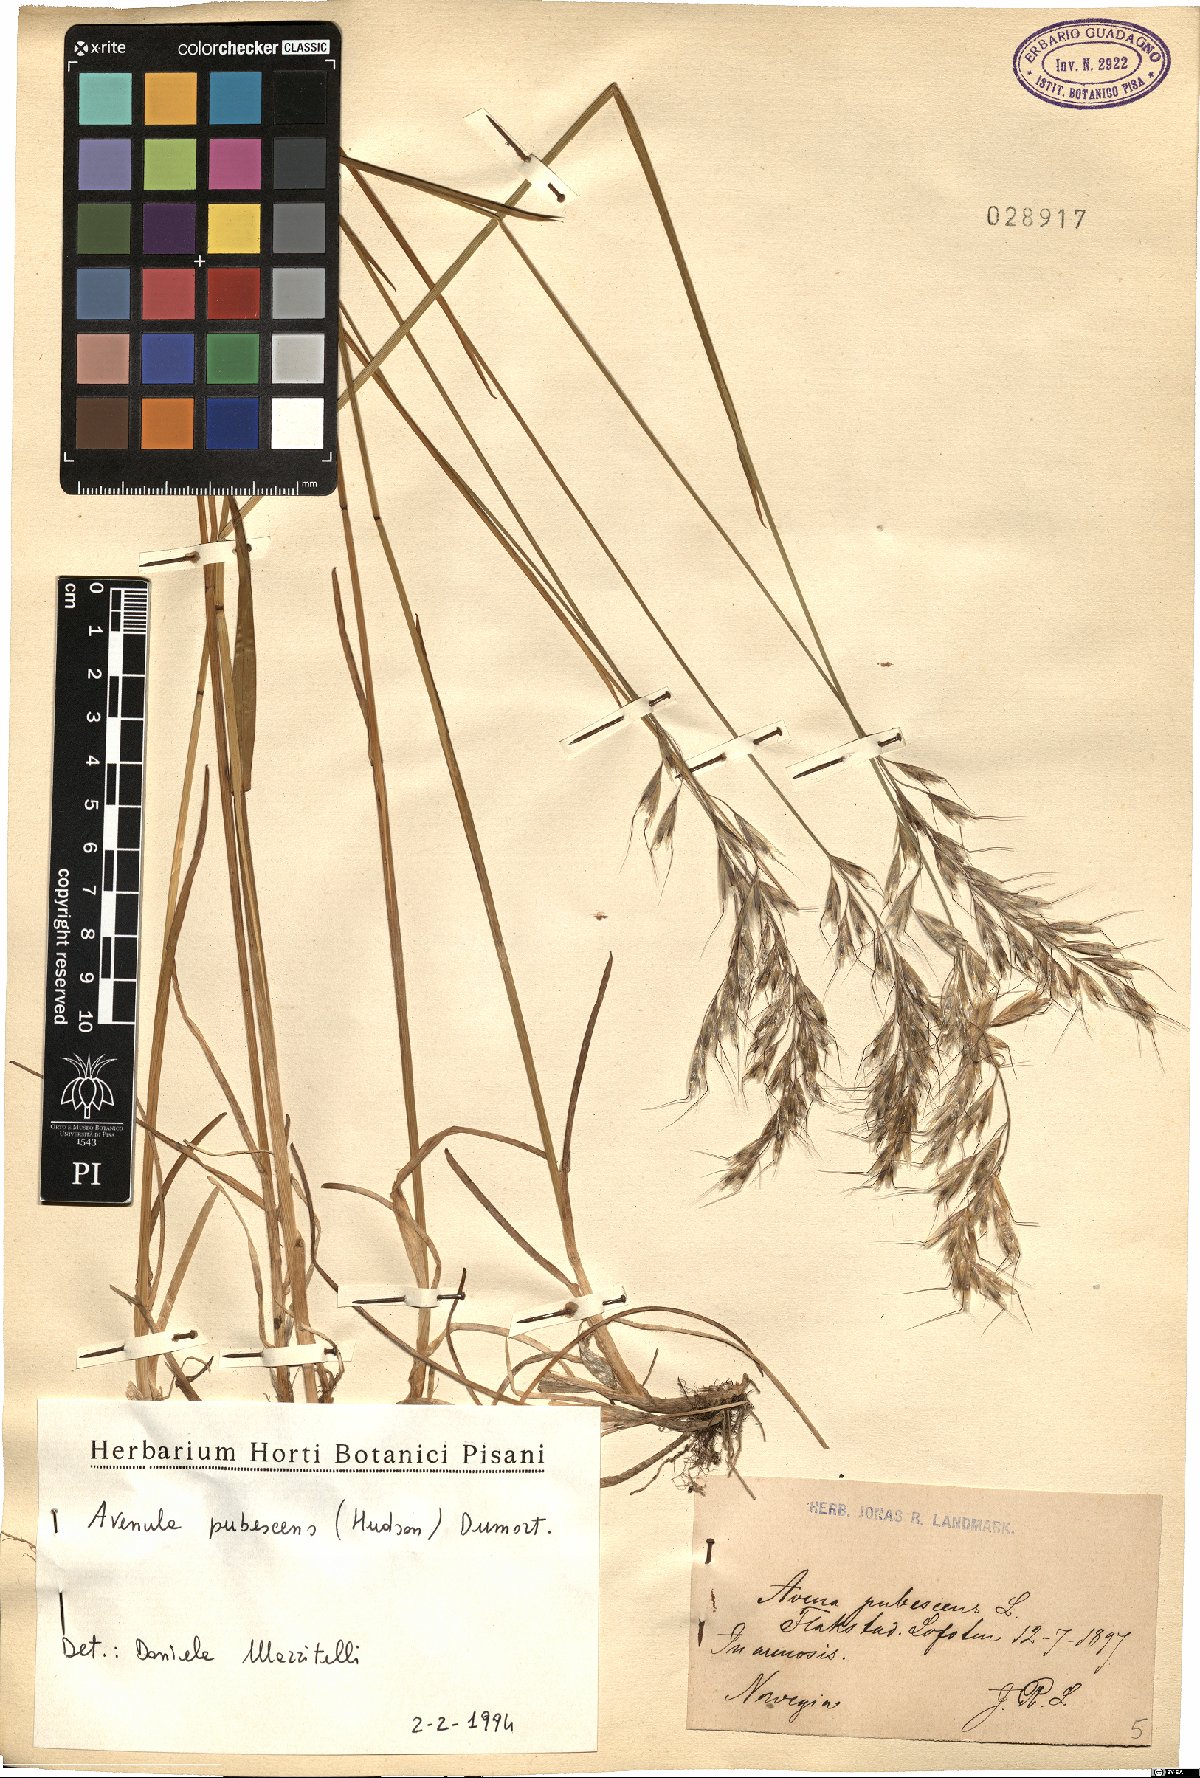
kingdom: Plantae
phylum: Tracheophyta
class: Liliopsida
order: Poales
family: Poaceae
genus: Avenula
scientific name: Avenula pubescens
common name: Downy alpine oatgrass
